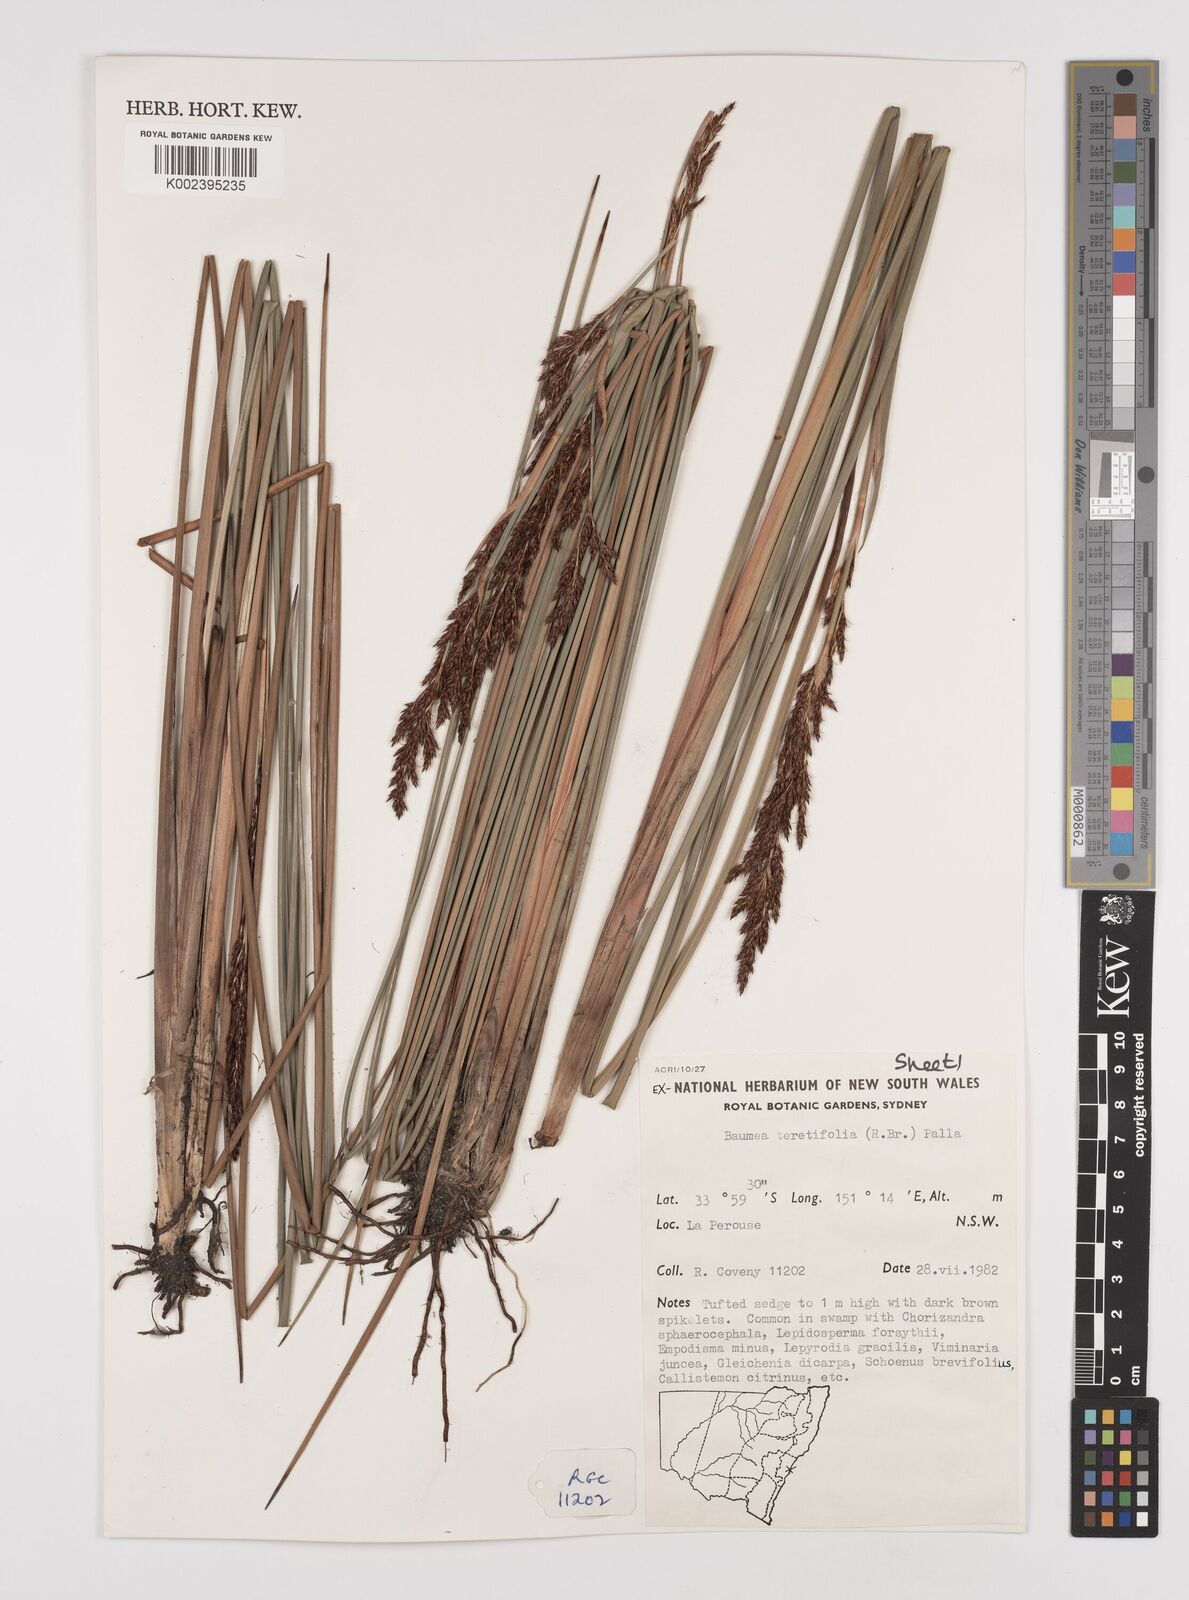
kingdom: Plantae
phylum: Tracheophyta
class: Liliopsida
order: Poales
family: Cyperaceae
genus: Machaerina
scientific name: Machaerina teretifolia
